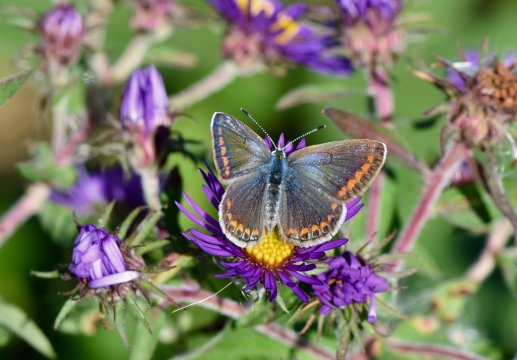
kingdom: Animalia
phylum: Arthropoda
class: Insecta
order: Lepidoptera
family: Lycaenidae
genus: Polyommatus
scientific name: Polyommatus icarus
